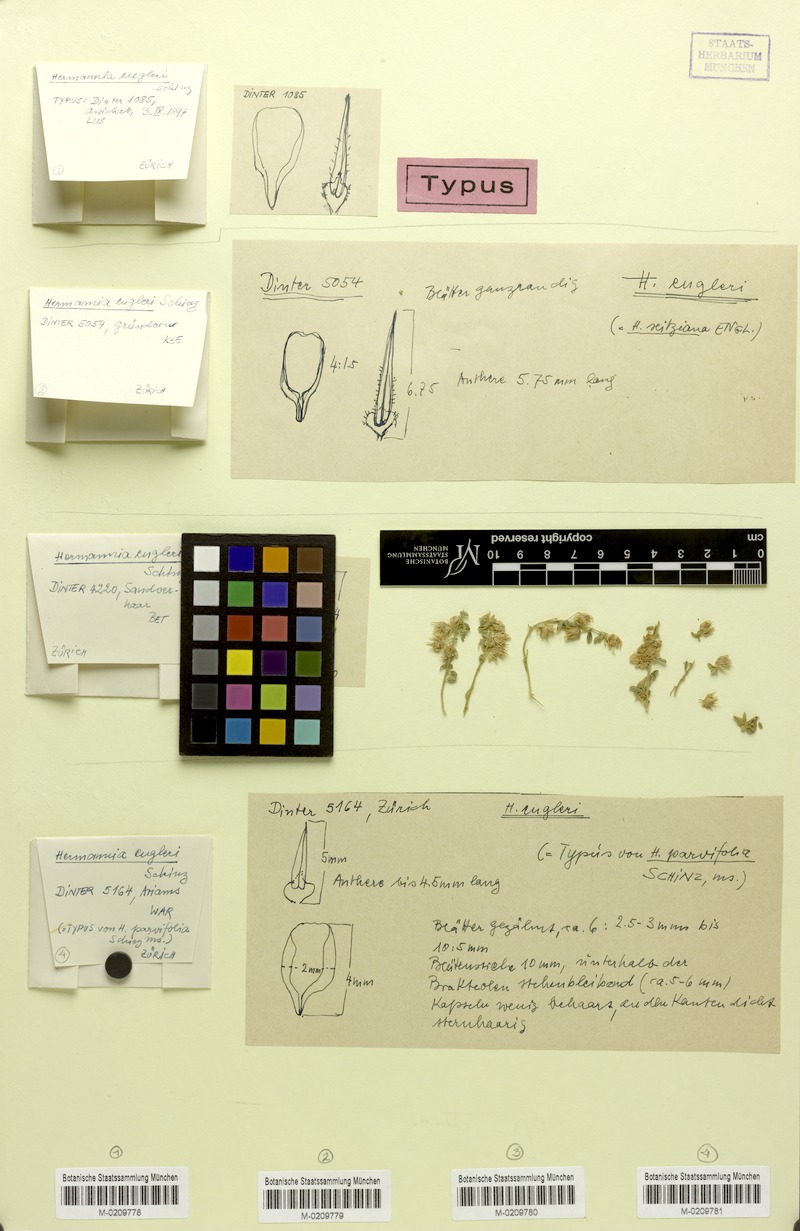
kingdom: Plantae
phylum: Tracheophyta
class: Magnoliopsida
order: Malvales
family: Malvaceae
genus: Hermannia
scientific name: Hermannia engleri
